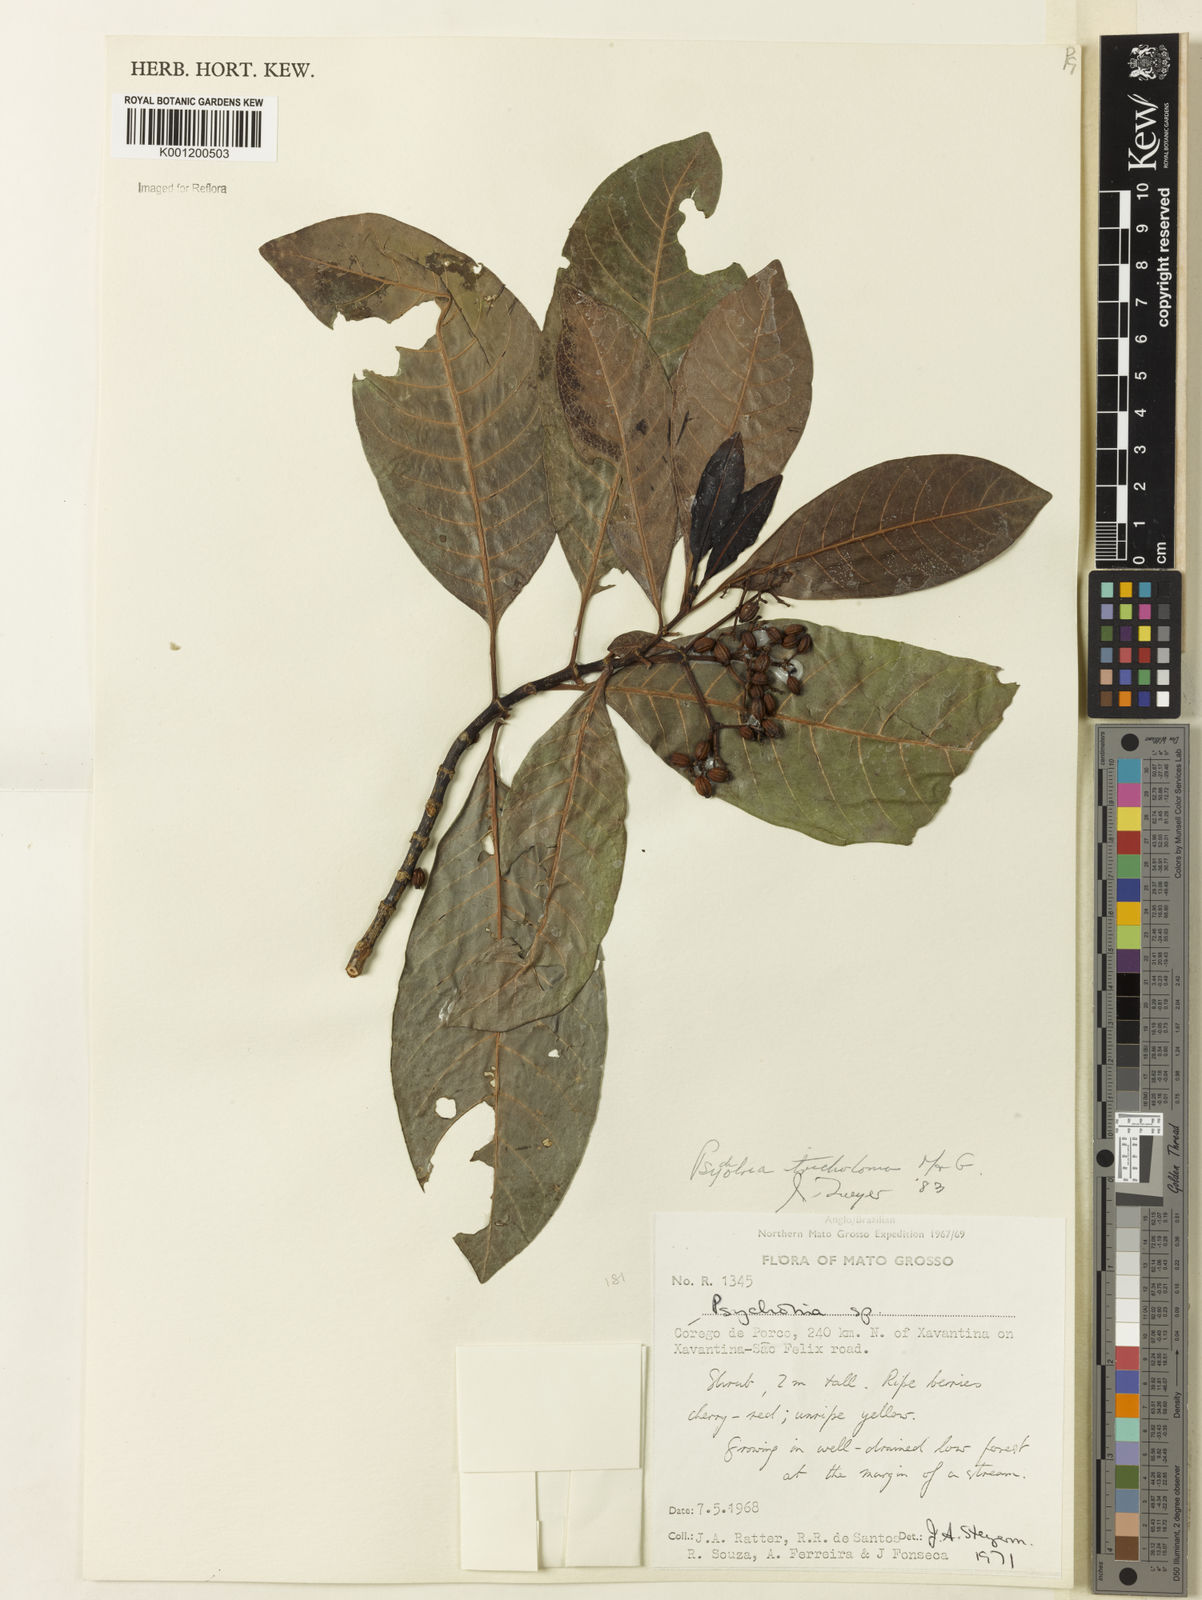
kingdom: Plantae
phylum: Tracheophyta
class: Magnoliopsida
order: Gentianales
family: Rubiaceae
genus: Psychotria
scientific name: Psychotria trichotoma
